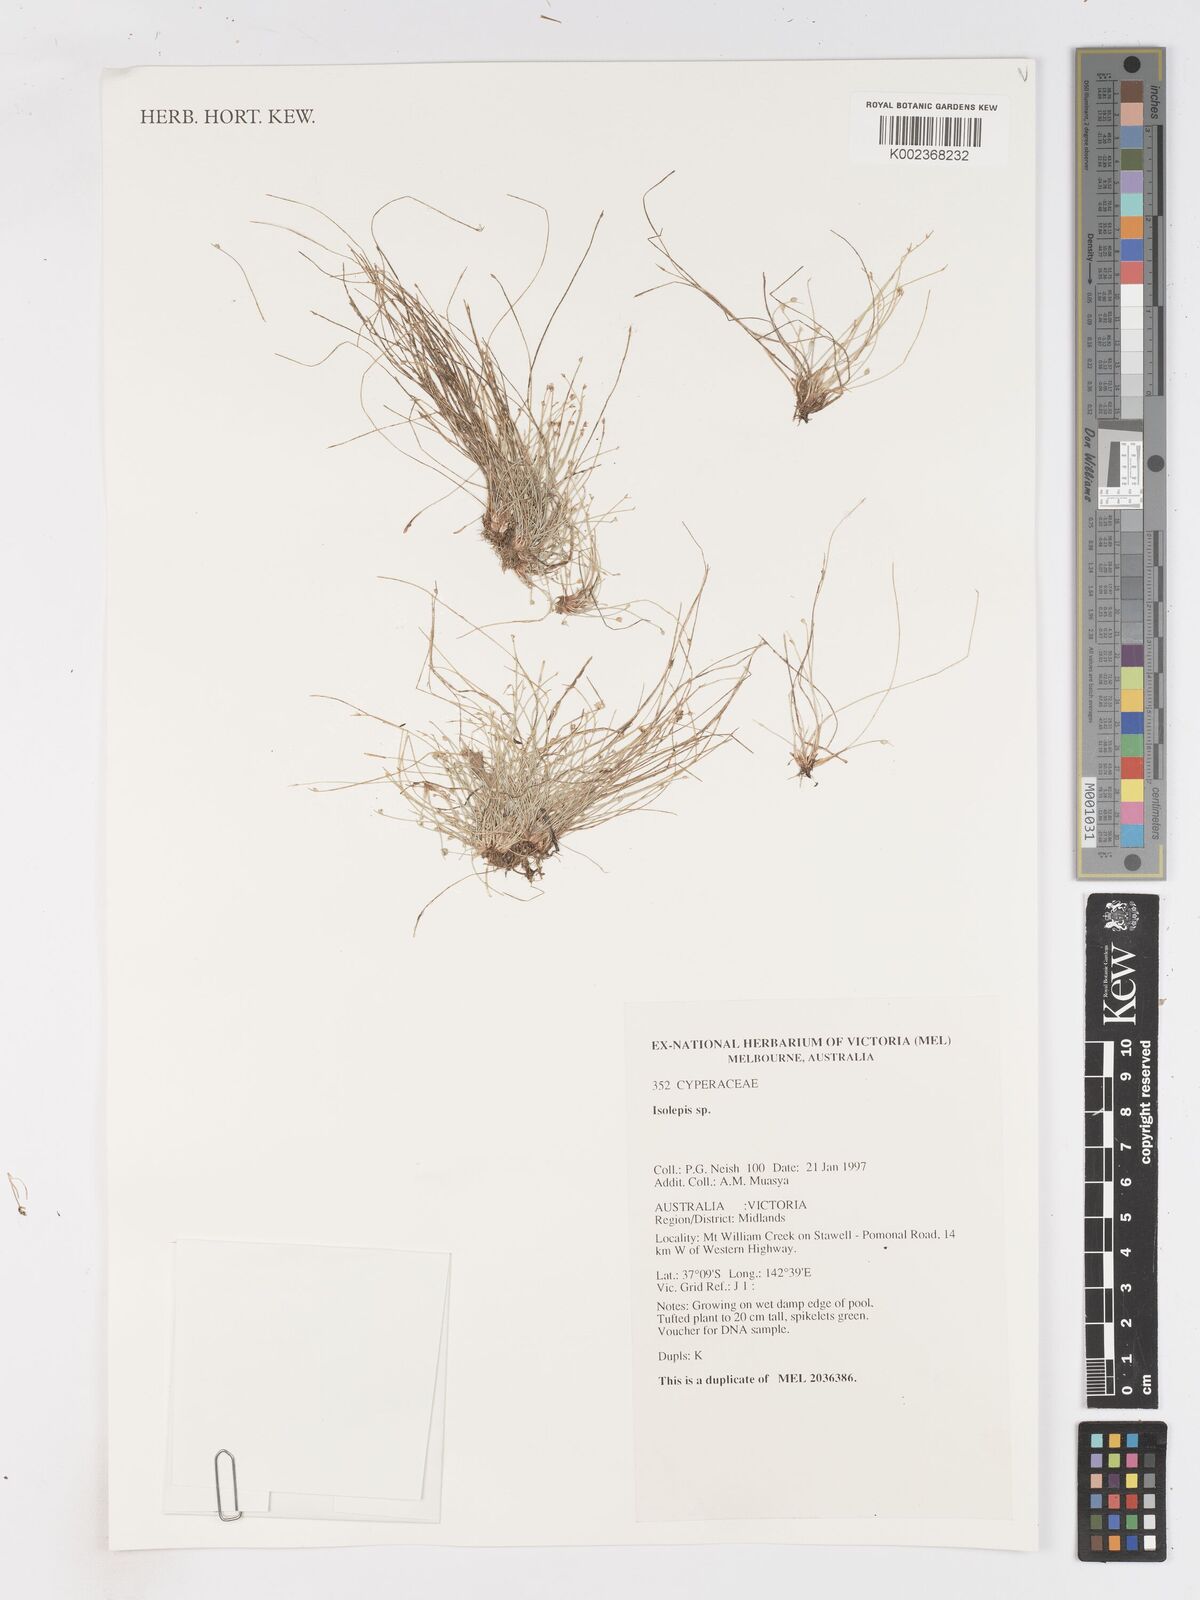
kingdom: Plantae
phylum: Tracheophyta
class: Liliopsida
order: Poales
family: Cyperaceae
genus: Isolepis
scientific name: Isolepis
